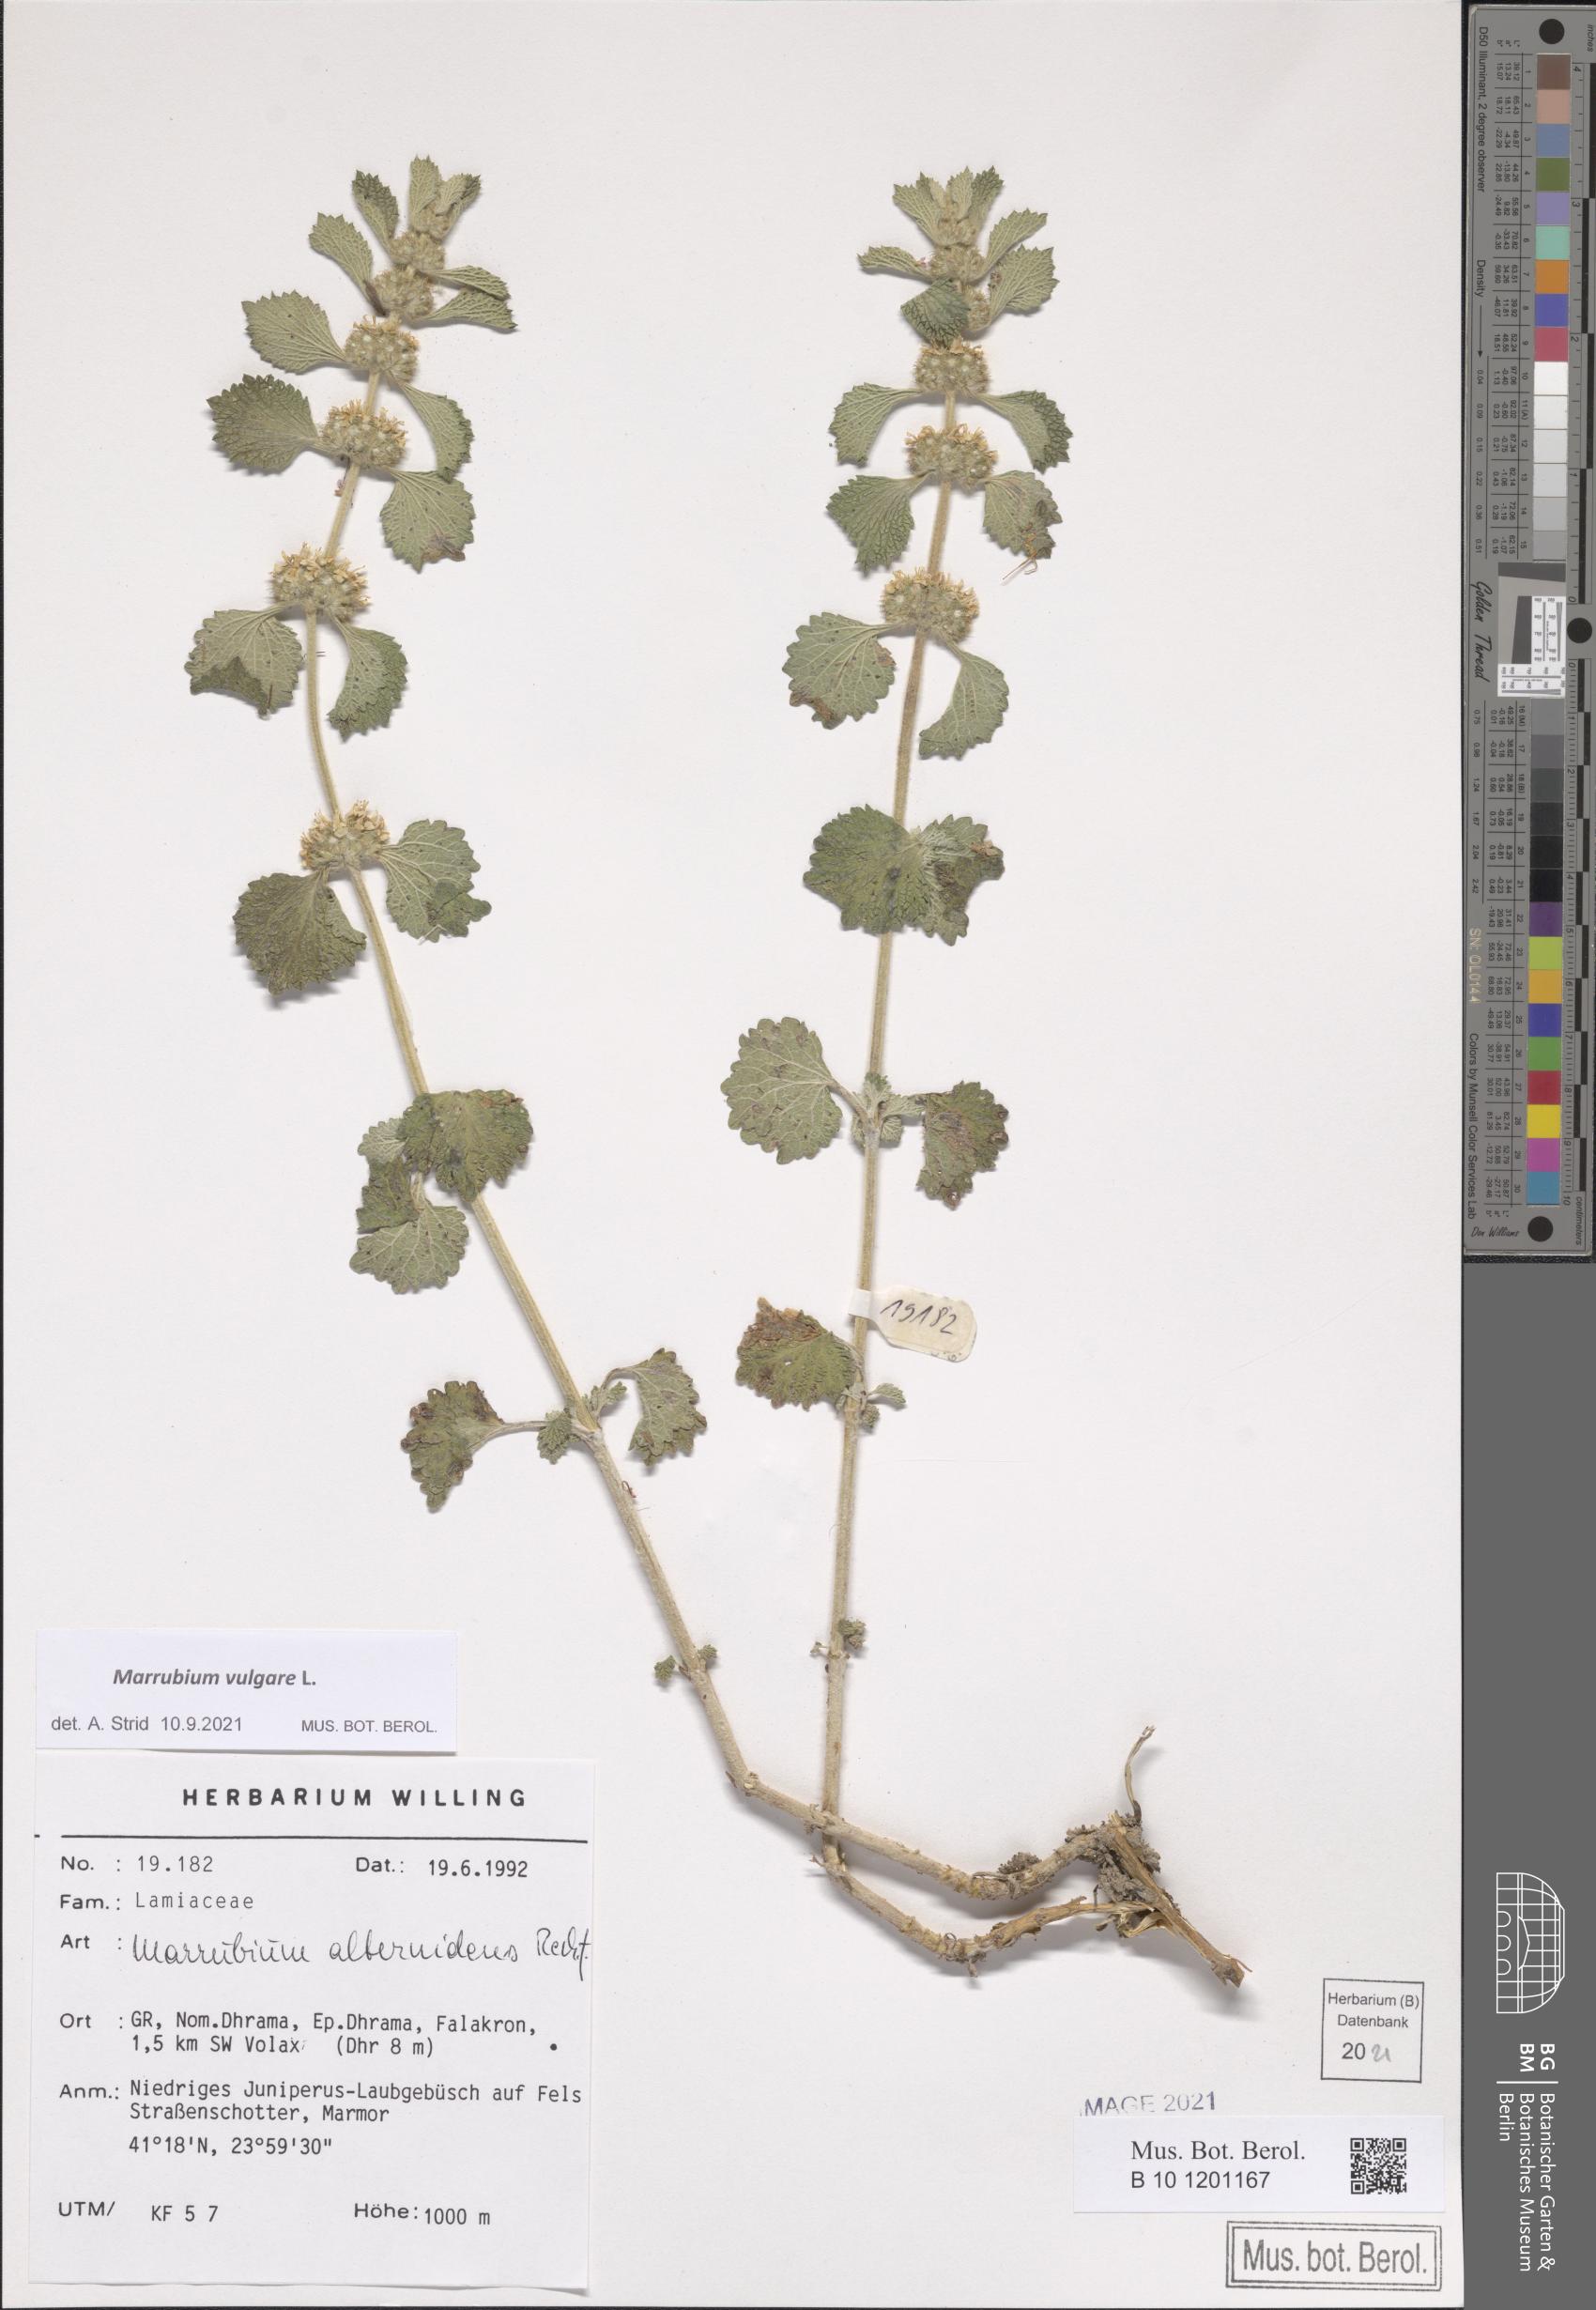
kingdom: Plantae
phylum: Tracheophyta
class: Magnoliopsida
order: Lamiales
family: Lamiaceae
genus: Marrubium
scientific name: Marrubium vulgare
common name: Horehound
